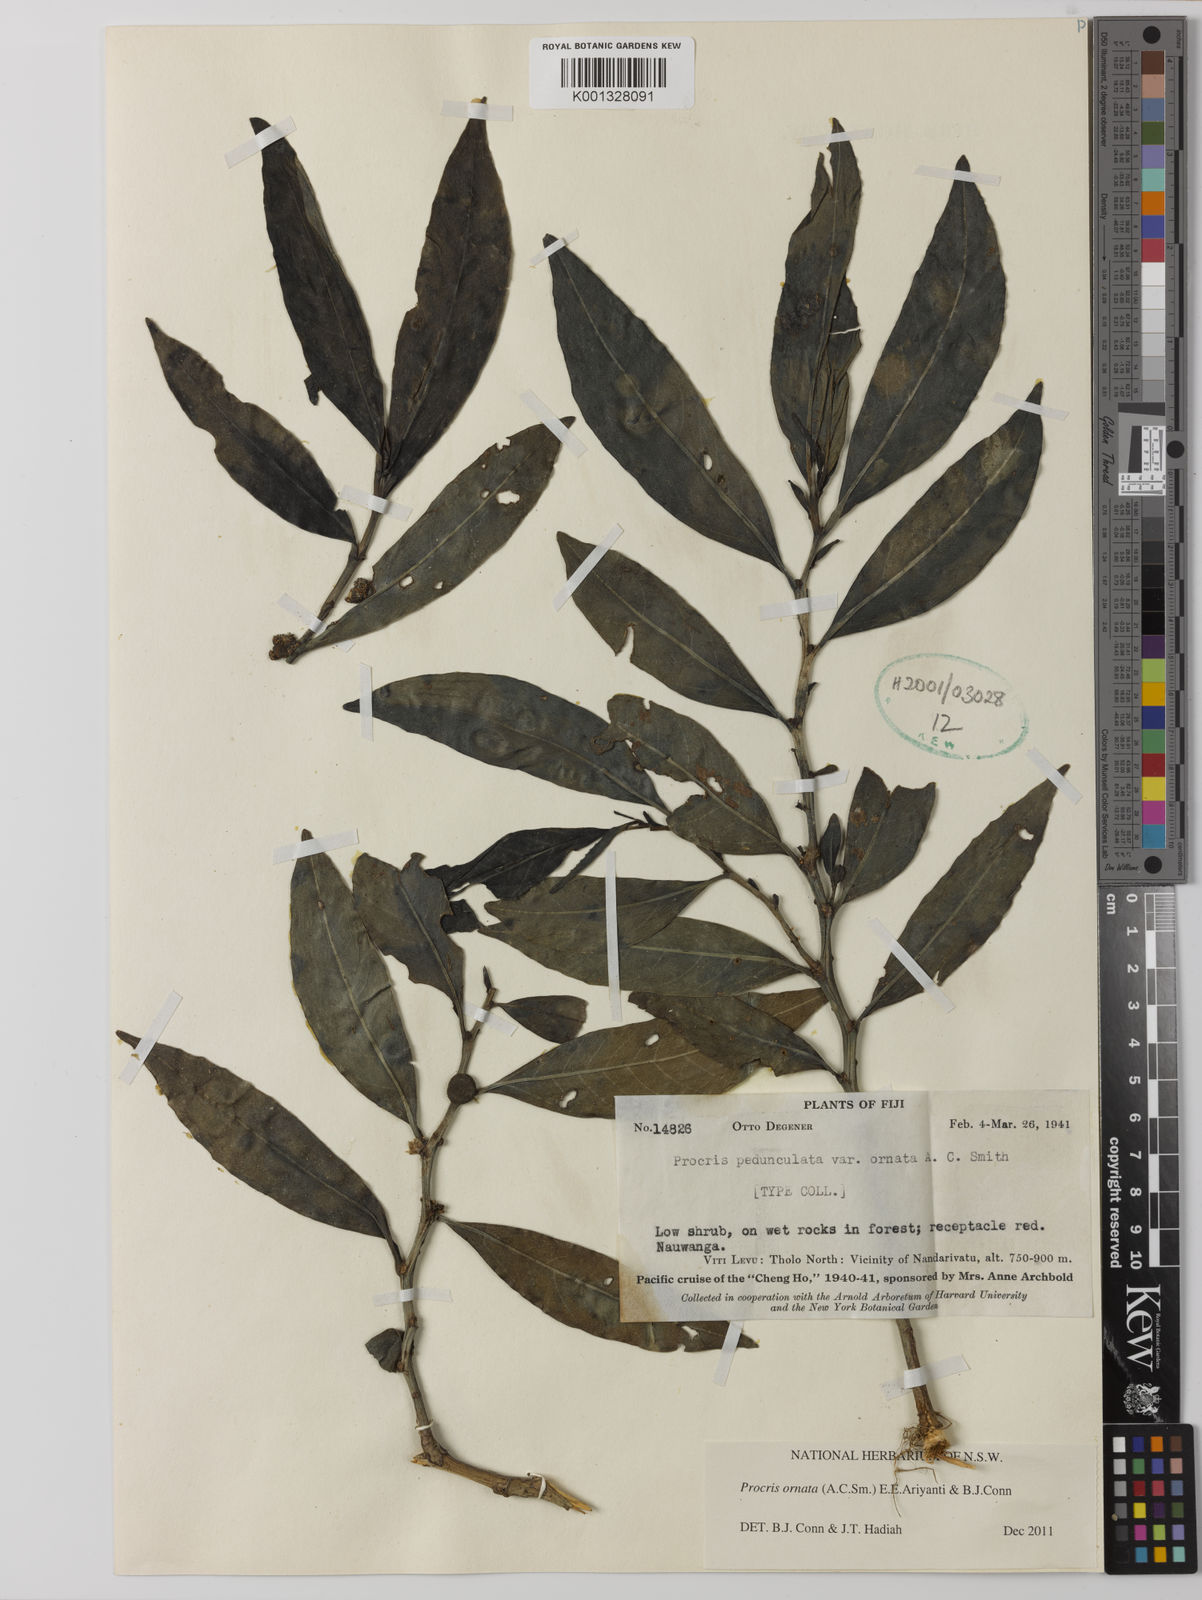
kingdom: Plantae
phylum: Tracheophyta
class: Magnoliopsida
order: Rosales
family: Urticaceae
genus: Procris
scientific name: Procris
